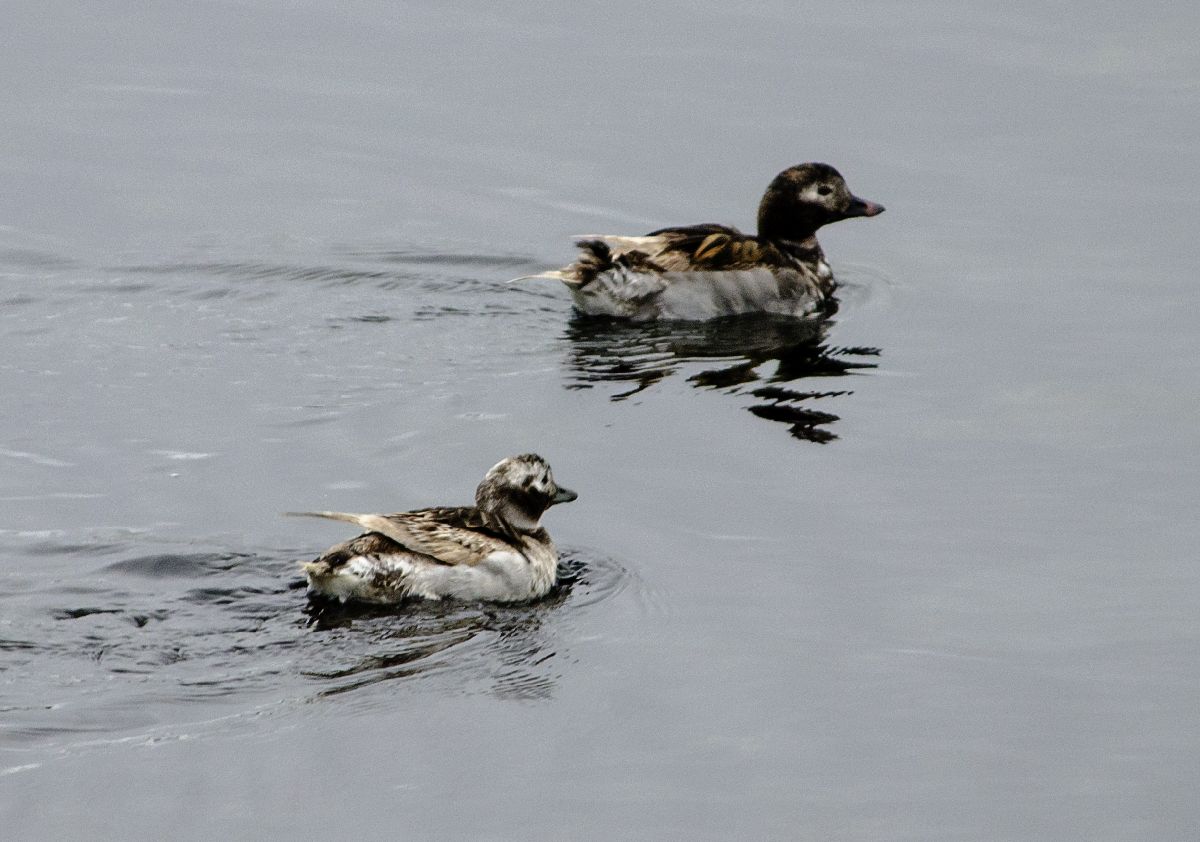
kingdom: Animalia
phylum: Chordata
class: Aves
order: Anseriformes
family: Anatidae
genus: Clangula
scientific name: Clangula hyemalis
